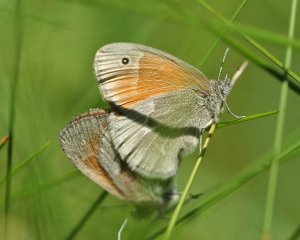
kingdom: Animalia
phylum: Arthropoda
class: Insecta
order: Lepidoptera
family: Nymphalidae
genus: Coenonympha
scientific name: Coenonympha tullia
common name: Large Heath
